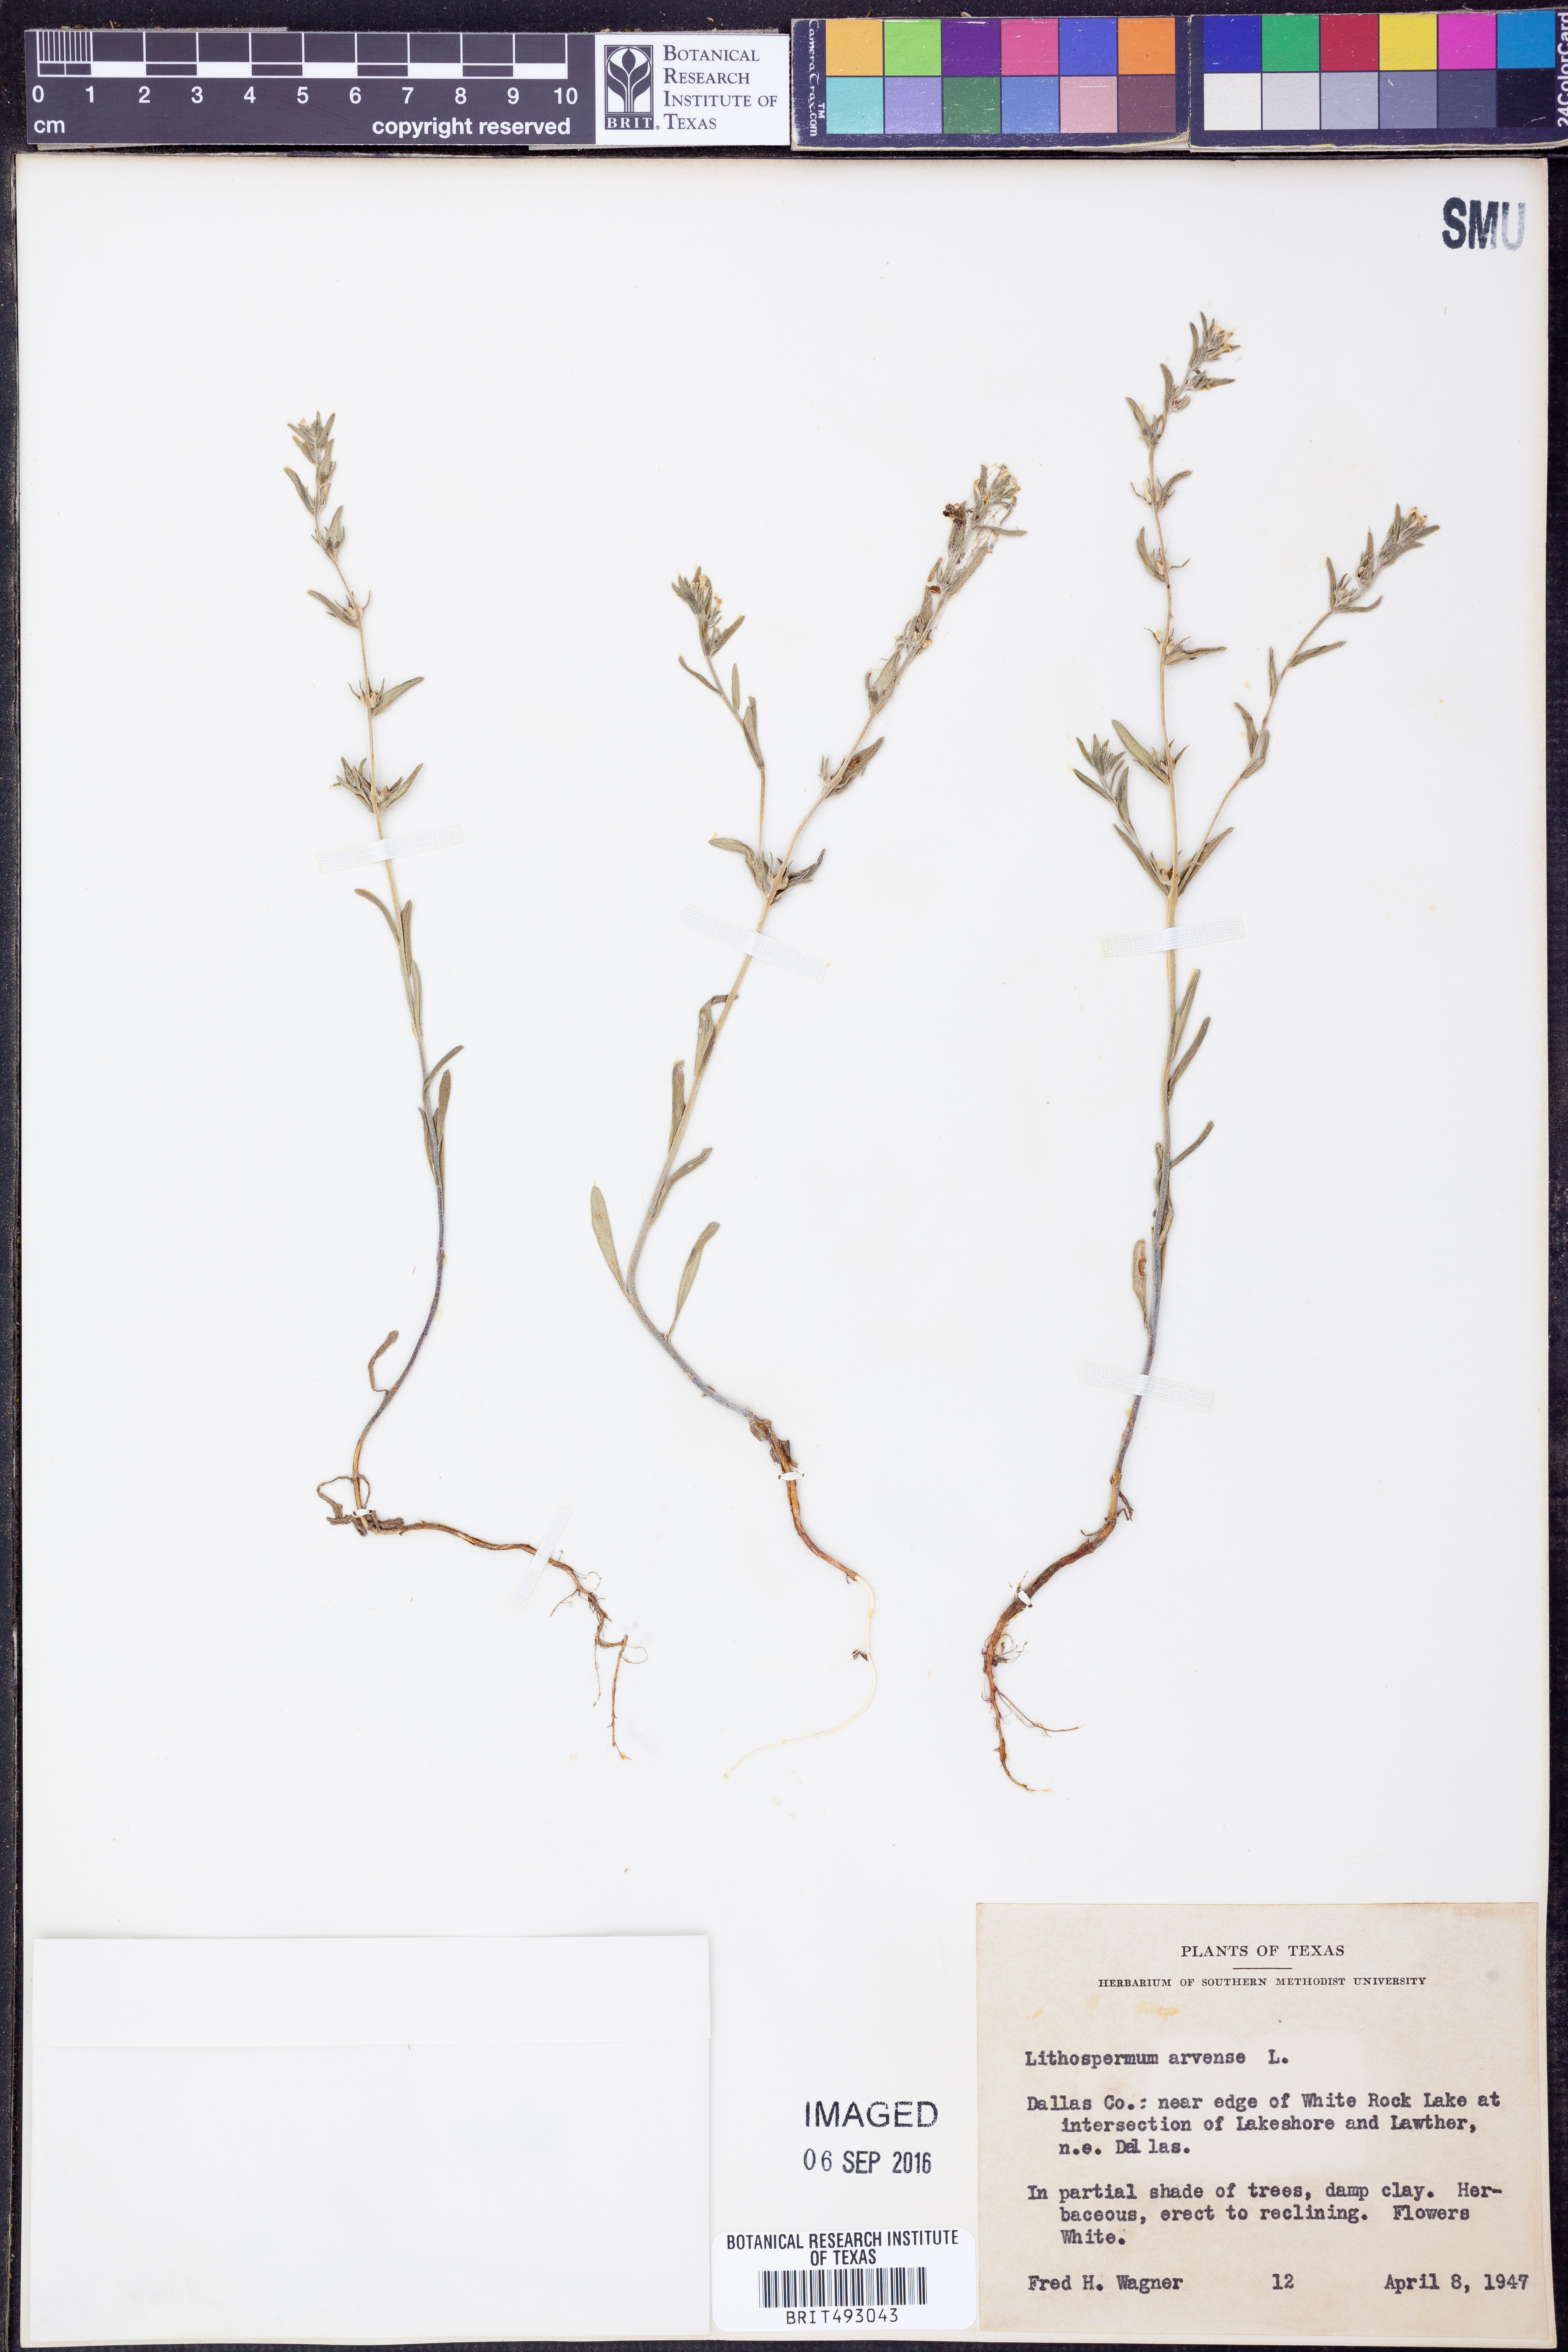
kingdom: Plantae
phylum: Tracheophyta
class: Magnoliopsida
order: Boraginales
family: Boraginaceae
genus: Lithospermum
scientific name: Lithospermum erythrorhizon
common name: Purple gromwell
